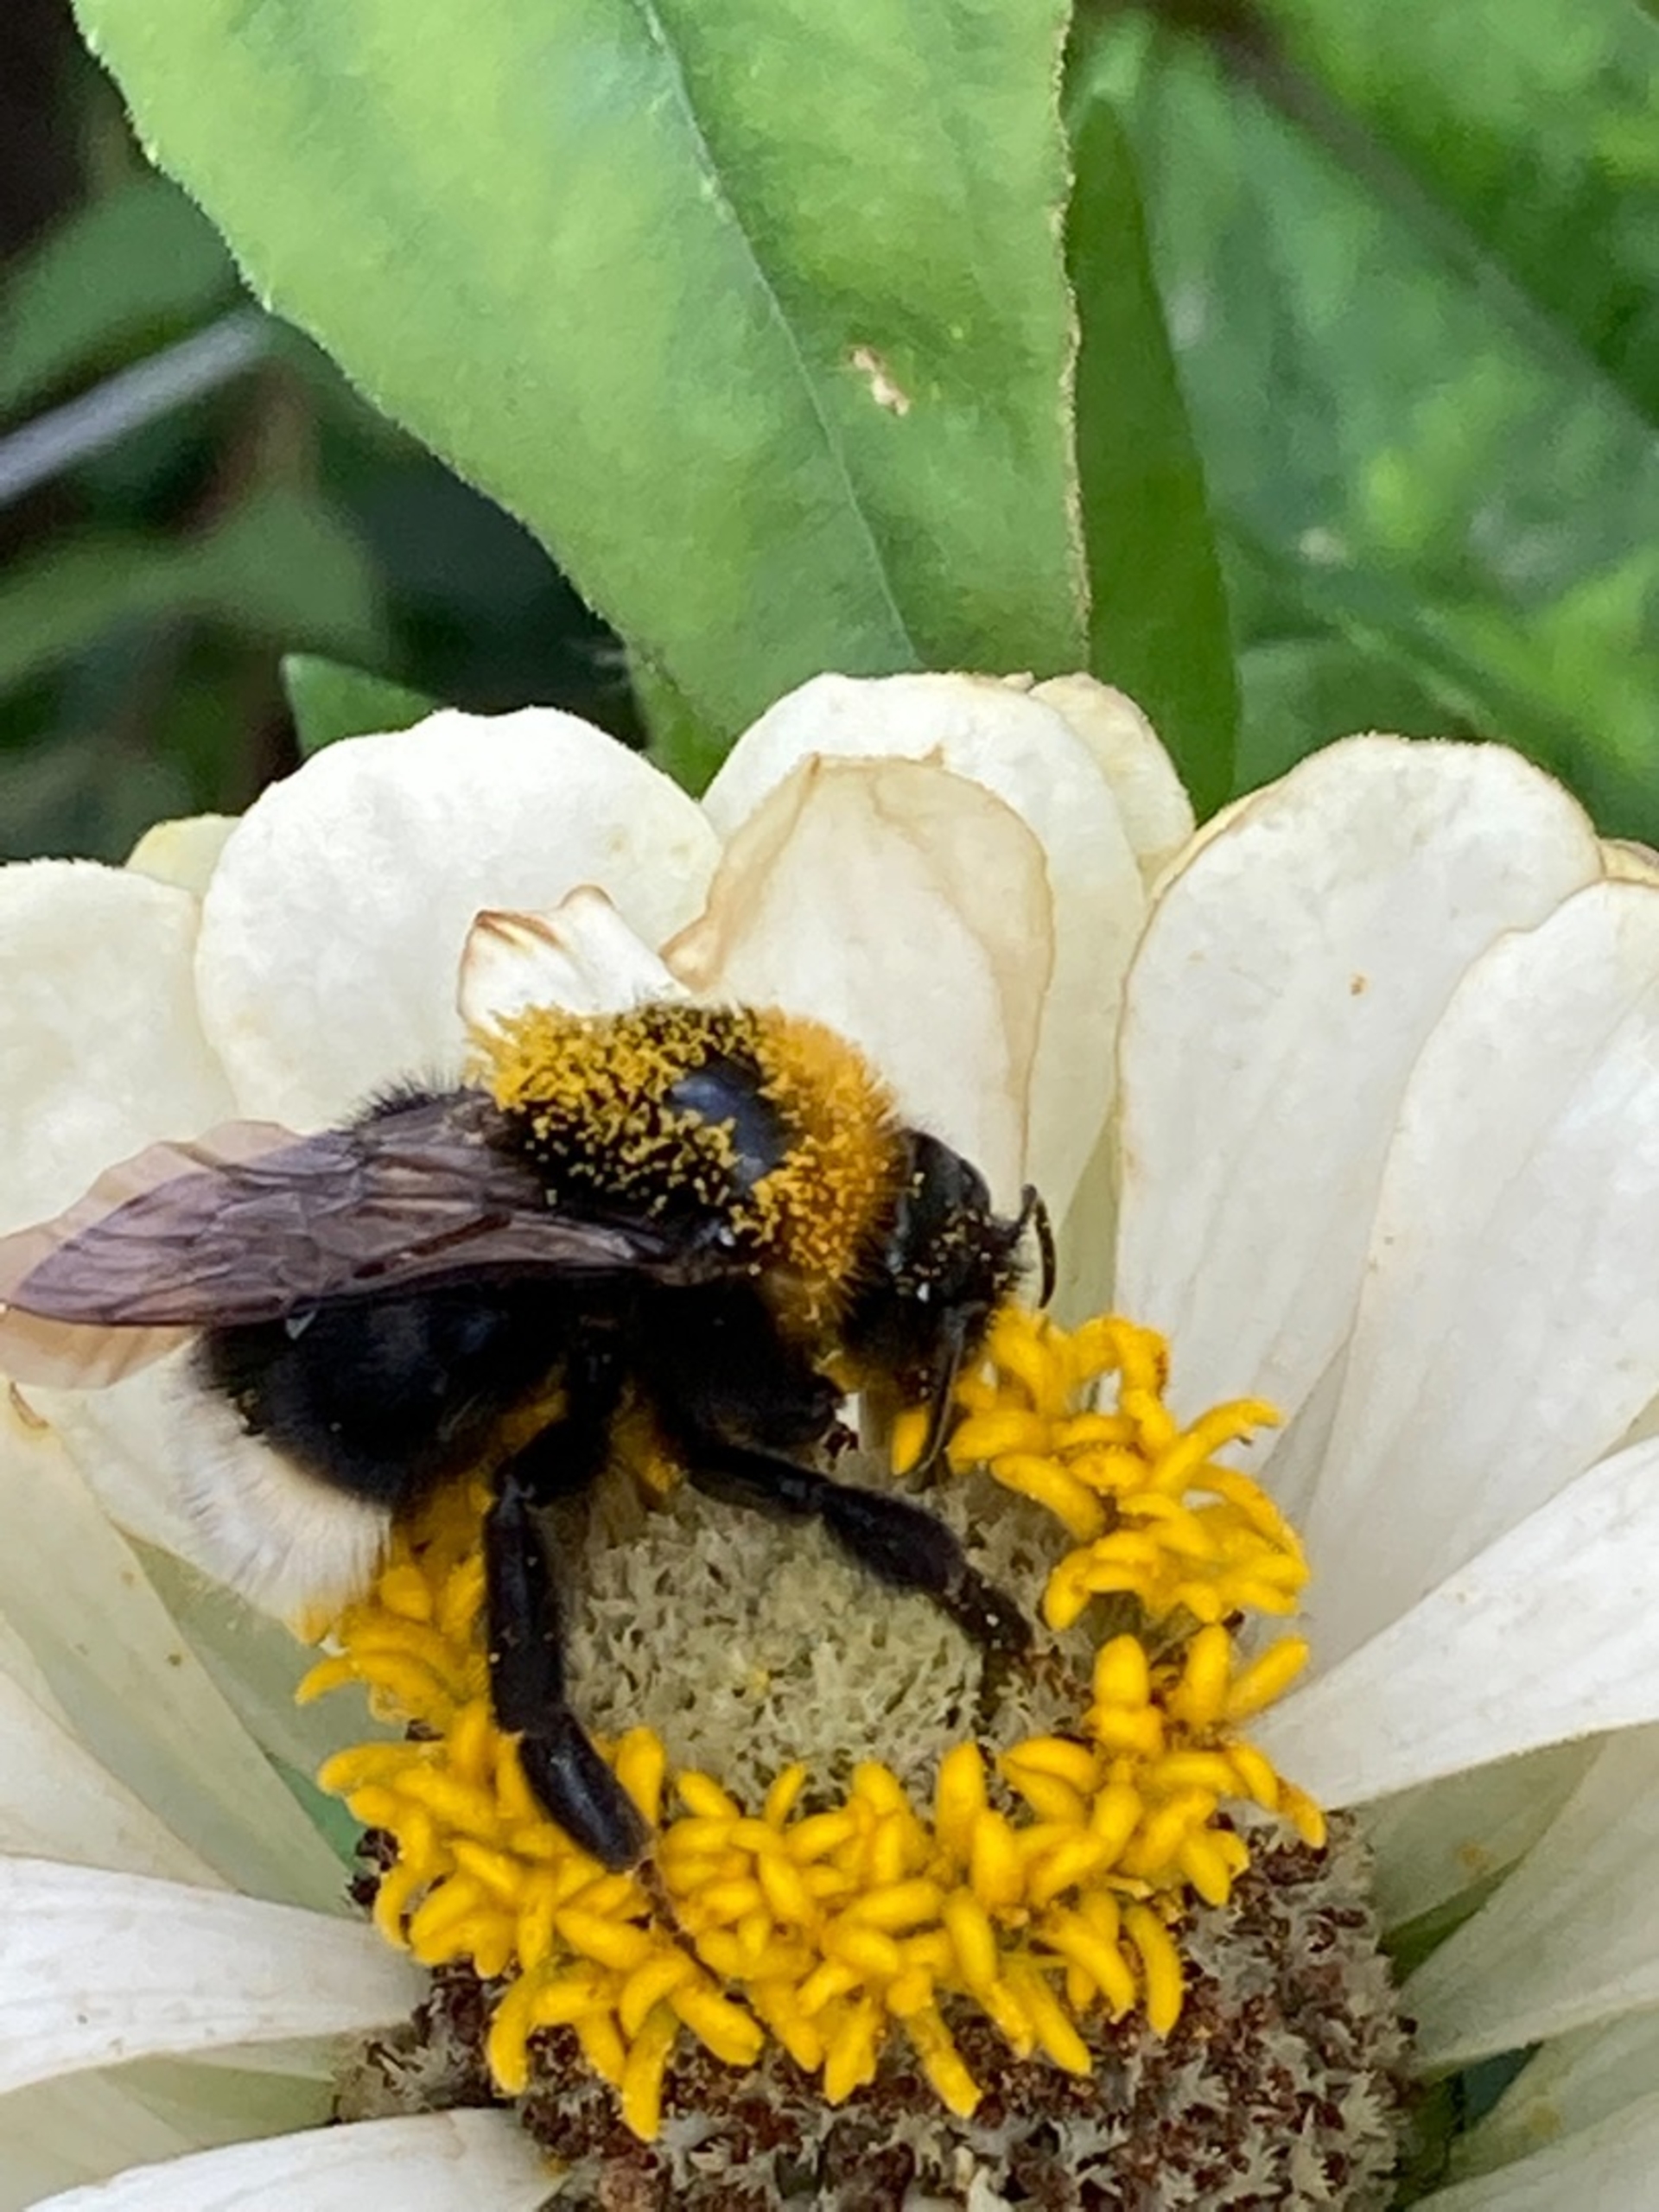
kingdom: Animalia
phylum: Arthropoda
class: Insecta
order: Hymenoptera
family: Apidae
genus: Bombus
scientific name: Bombus bohemicus
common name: Lys jordsnyltehumle
